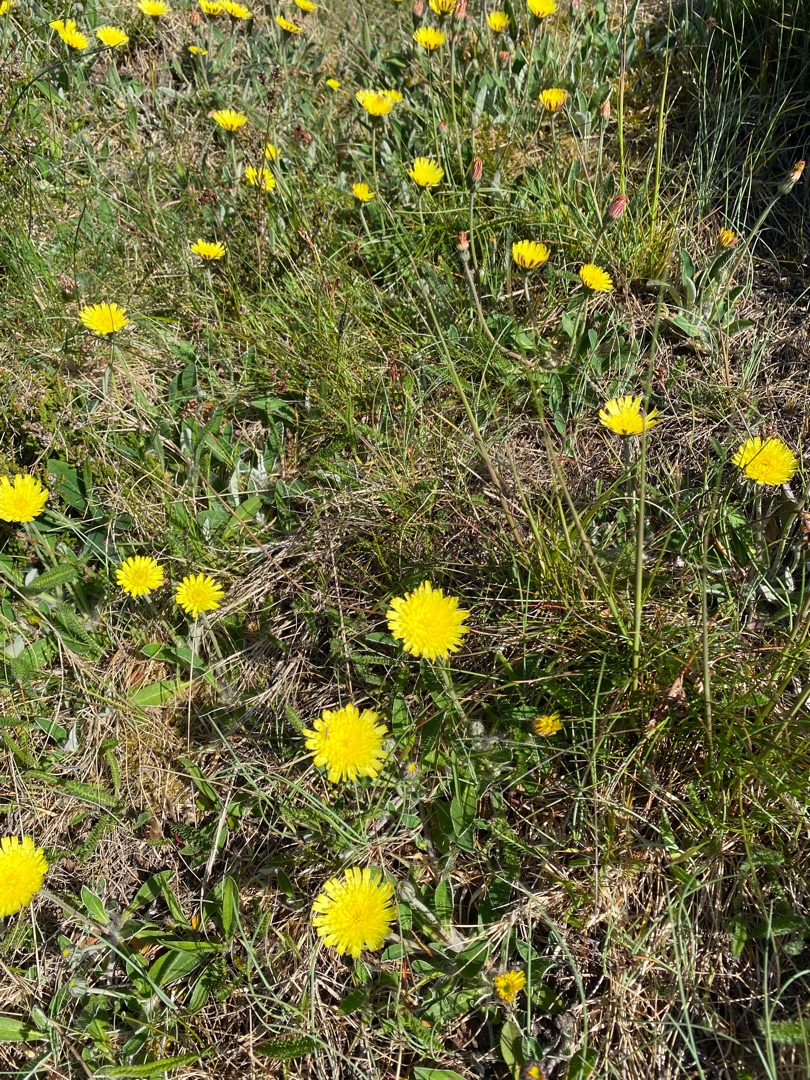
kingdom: Plantae
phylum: Tracheophyta
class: Magnoliopsida
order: Asterales
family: Asteraceae
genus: Pilosella
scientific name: Pilosella officinarum
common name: Håret høgeurt
